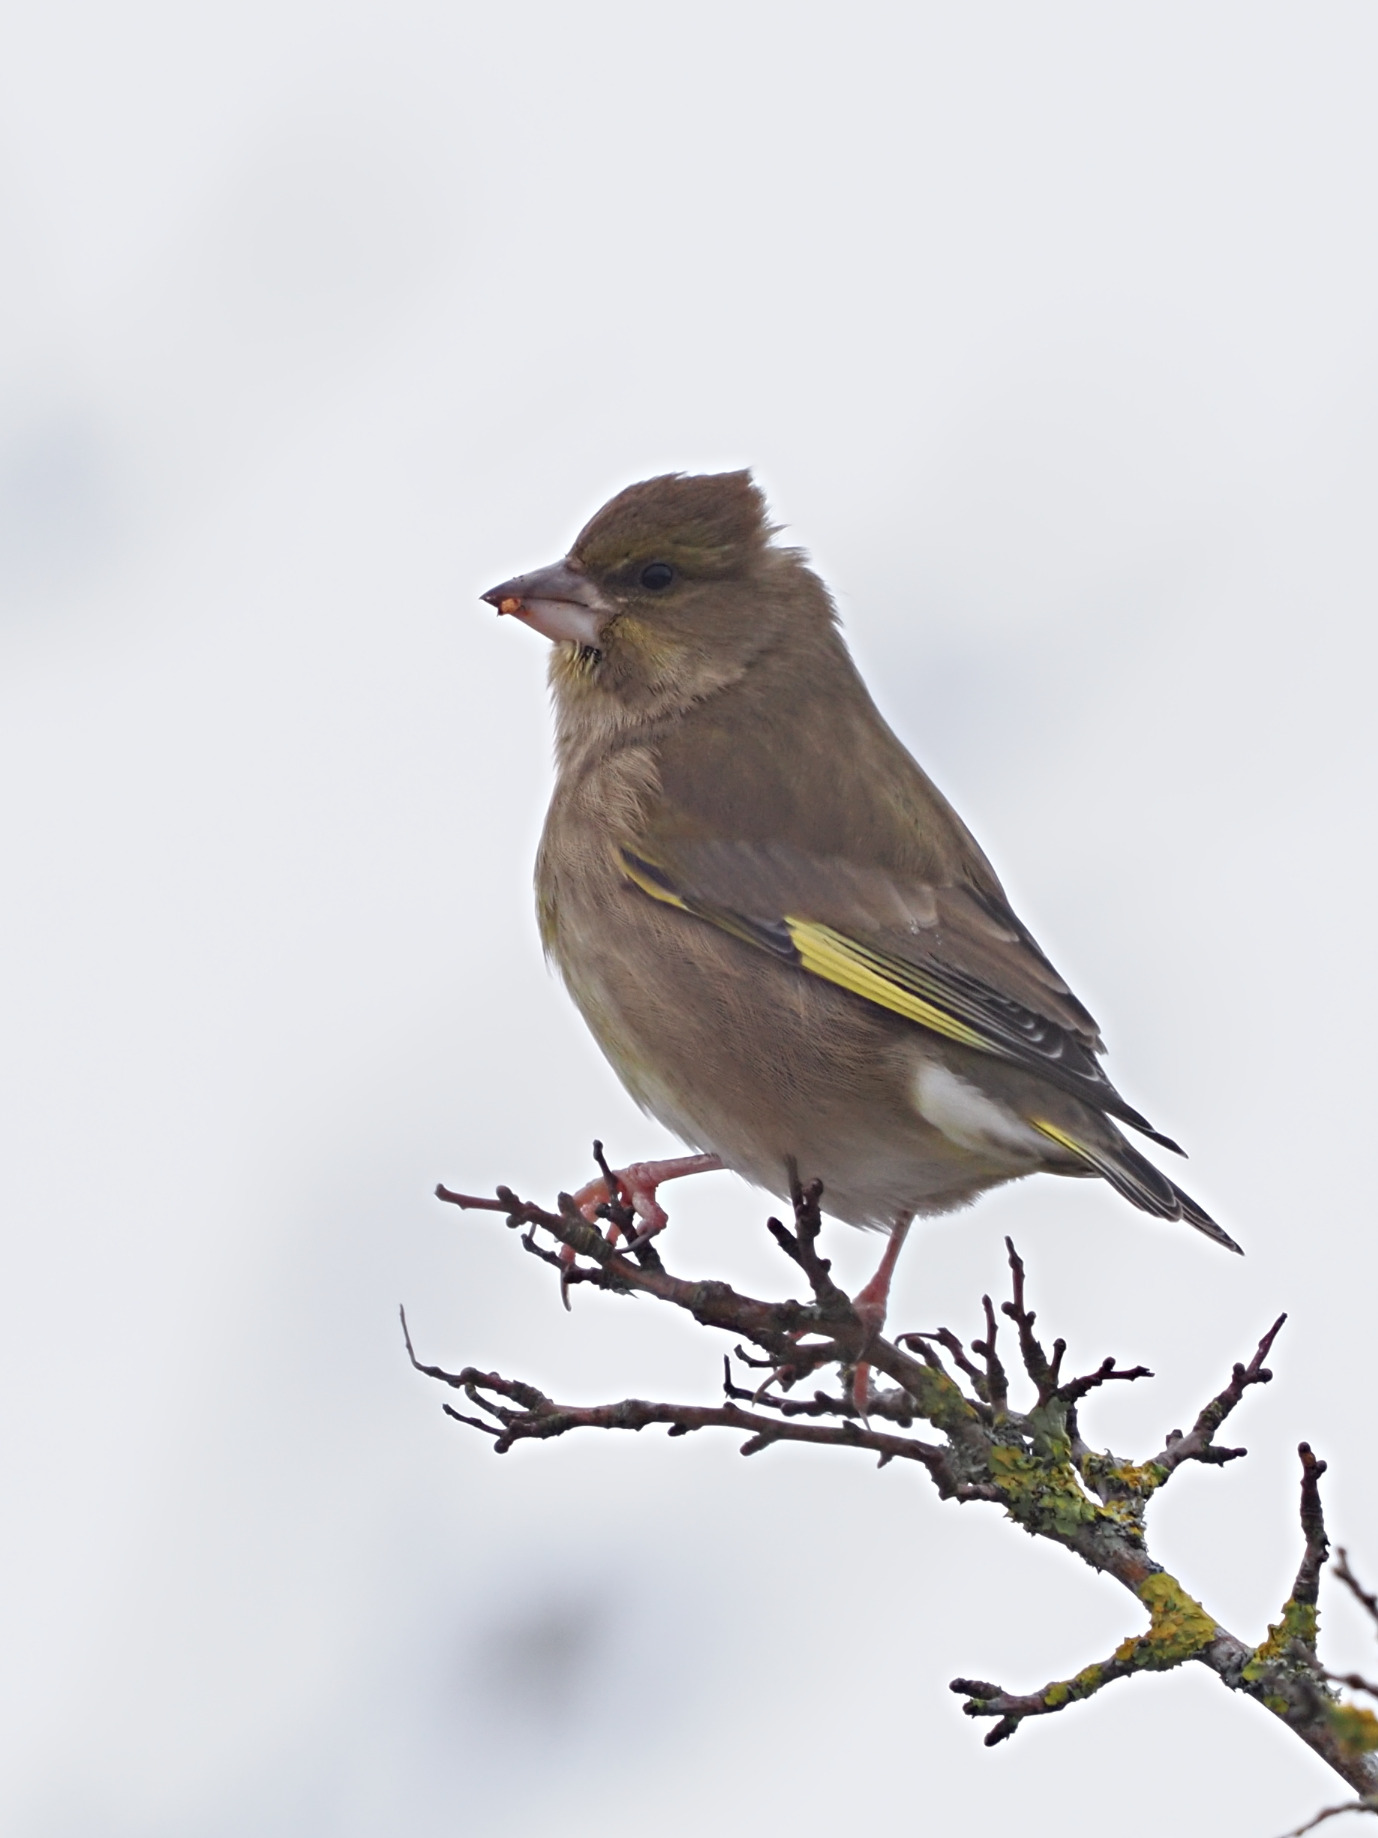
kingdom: Plantae
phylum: Tracheophyta
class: Liliopsida
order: Poales
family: Poaceae
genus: Chloris
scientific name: Chloris chloris
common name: Grønirisk
